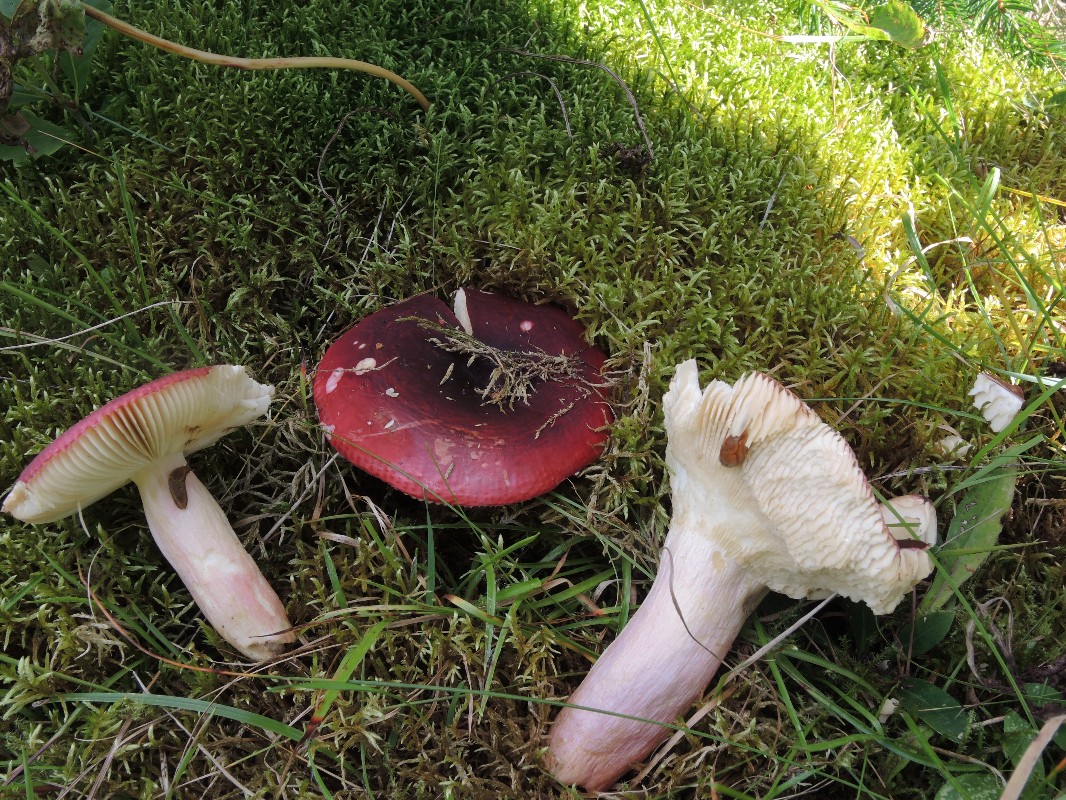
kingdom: Fungi
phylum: Basidiomycota
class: Agaricomycetes
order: Russulales
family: Russulaceae
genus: Russula
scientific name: Russula xerampelina
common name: hummer-skørhat
